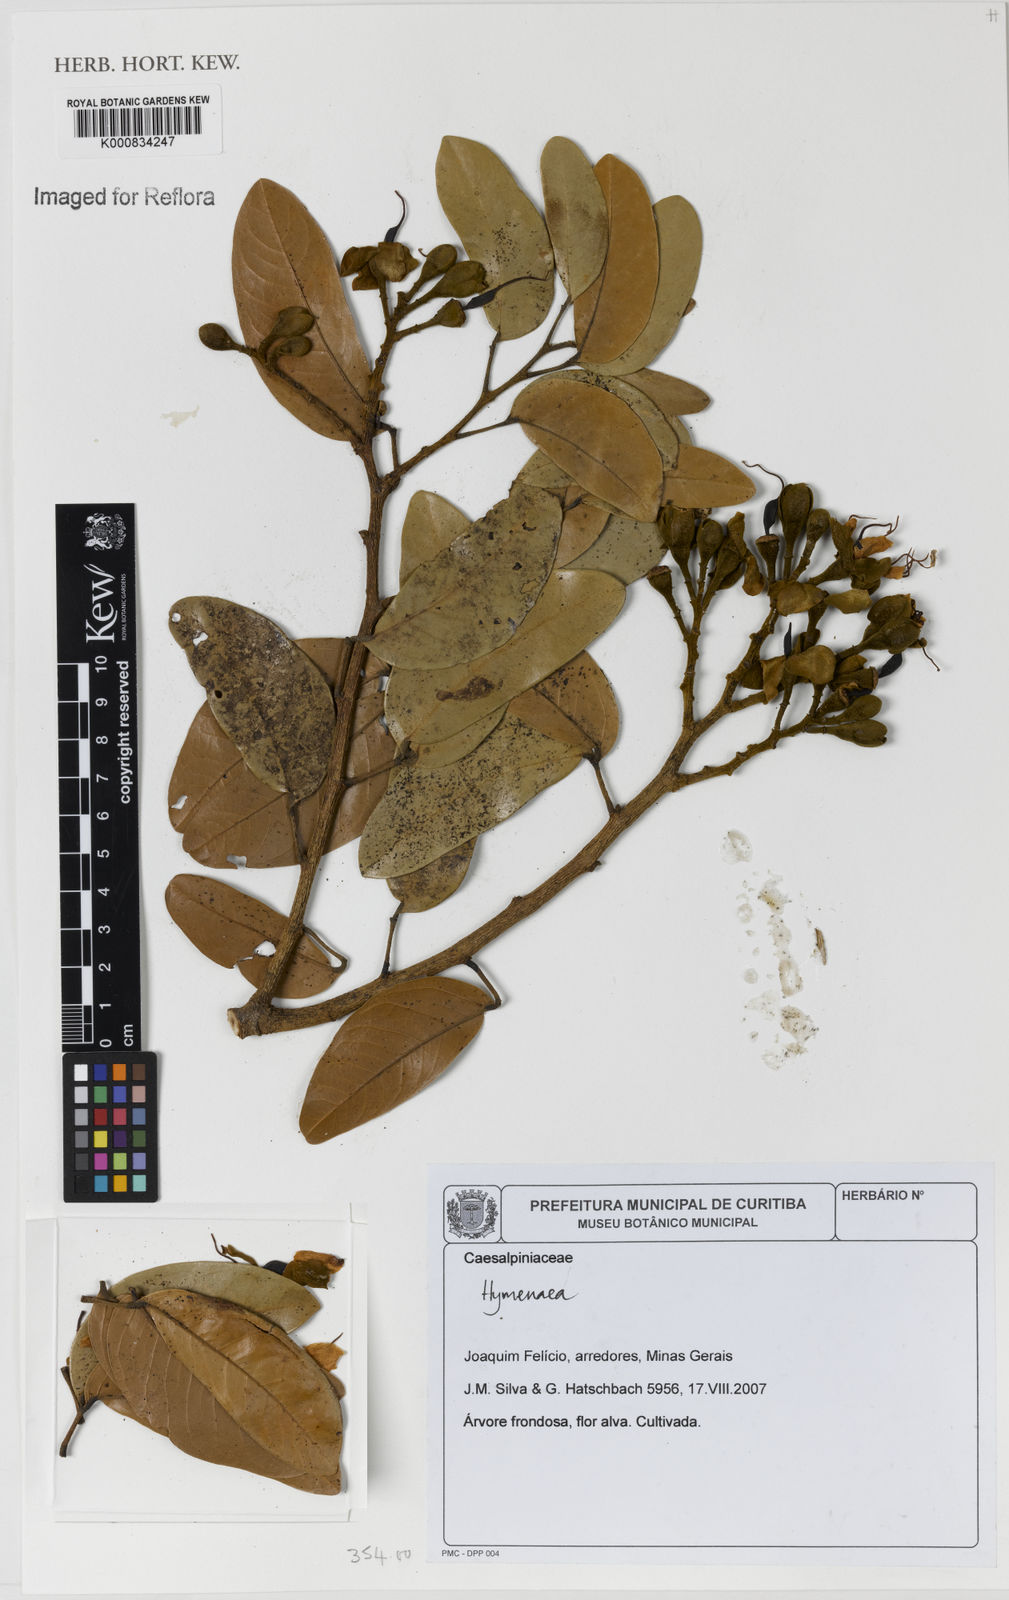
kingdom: Plantae
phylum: Tracheophyta
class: Magnoliopsida
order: Fabales
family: Fabaceae
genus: Hymenaea
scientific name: Hymenaea
